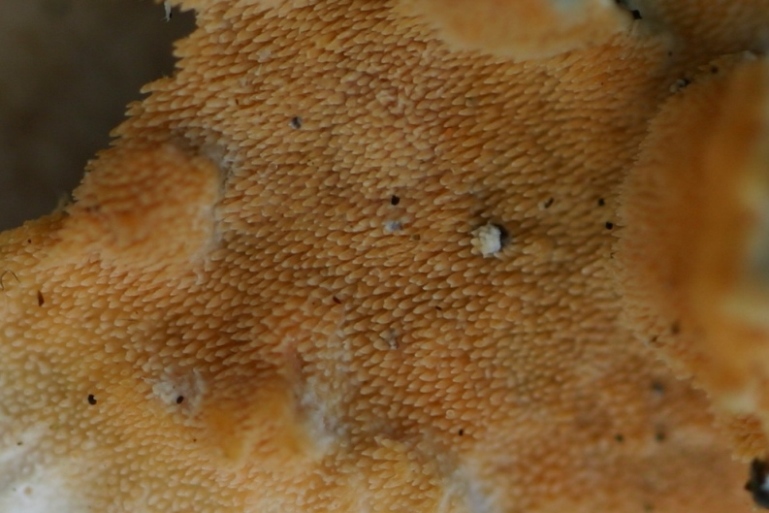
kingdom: Fungi
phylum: Basidiomycota
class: Agaricomycetes
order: Polyporales
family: Steccherinaceae
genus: Steccherinum
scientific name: Steccherinum ochraceum
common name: almindelig skønpig
